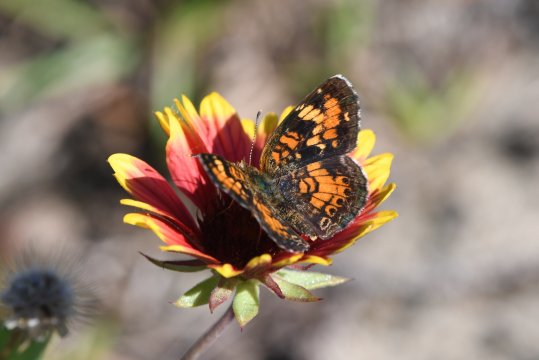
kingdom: Animalia
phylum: Arthropoda
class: Insecta
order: Lepidoptera
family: Nymphalidae
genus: Phyciodes
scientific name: Phyciodes phaon
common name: Phaon Crescent
